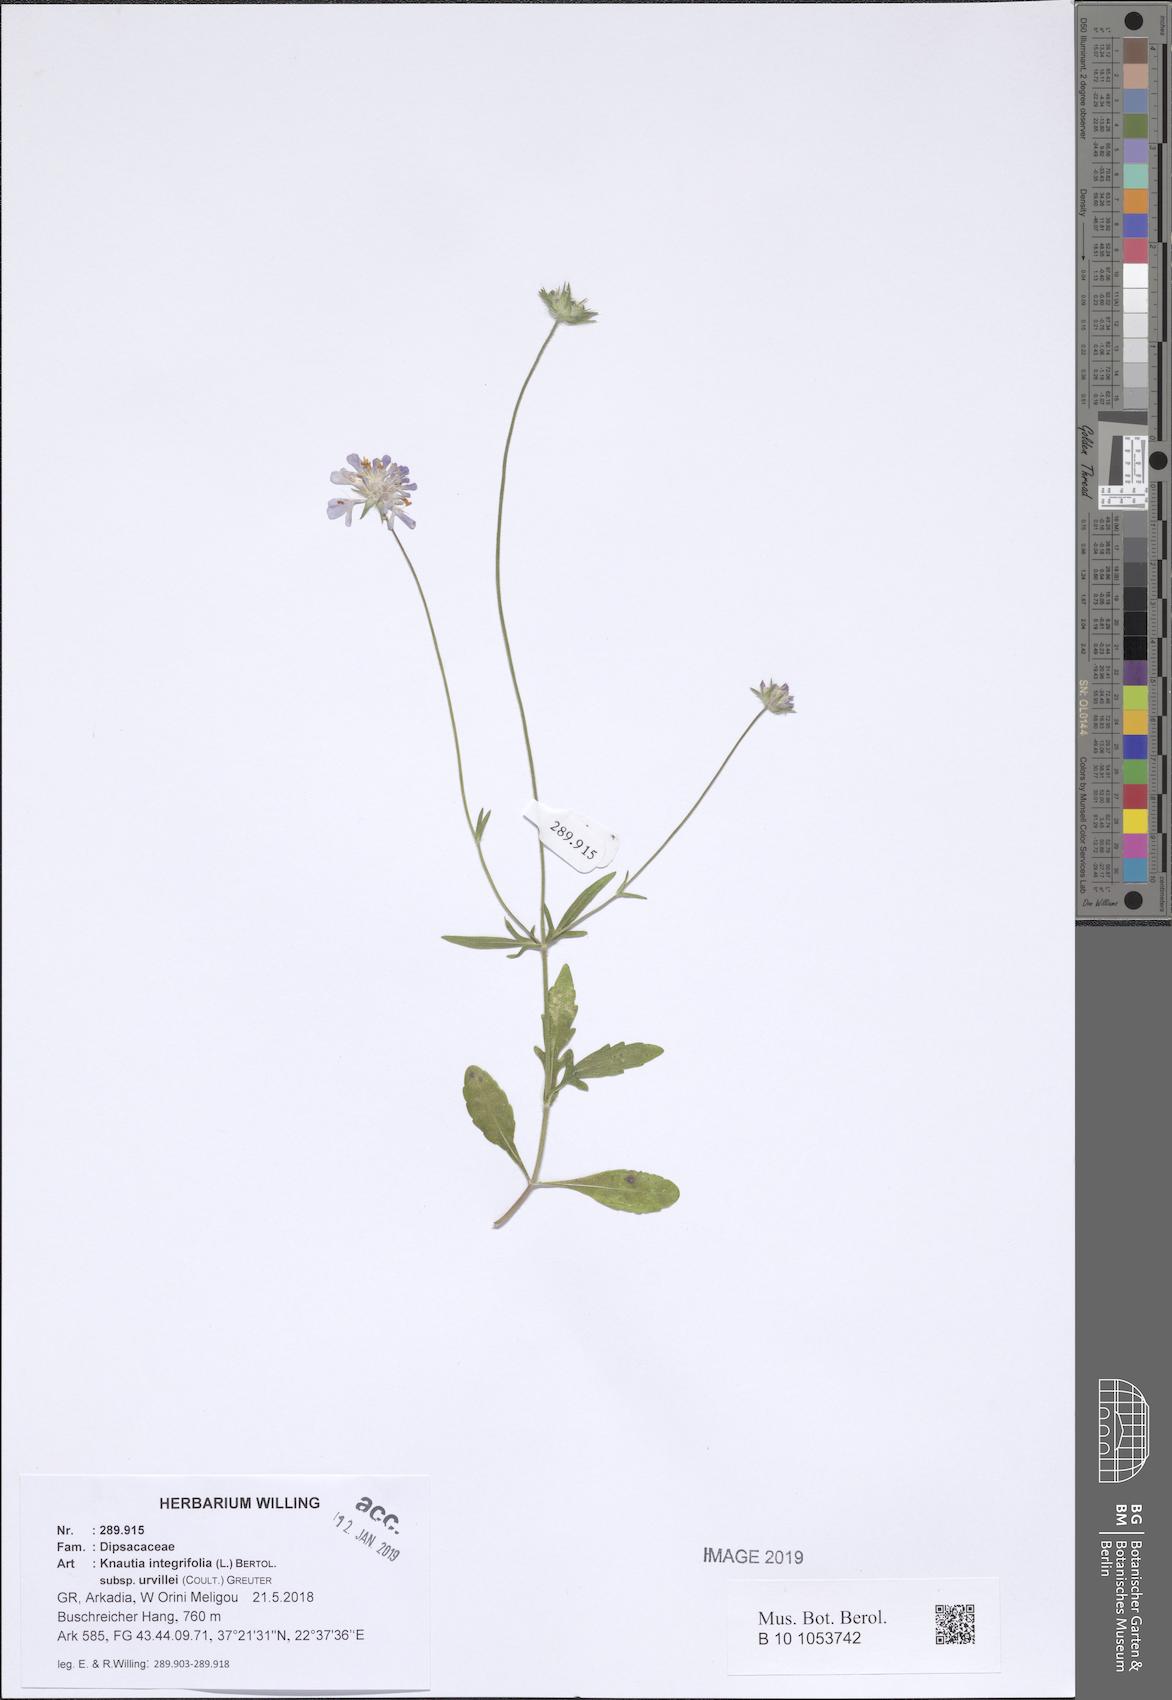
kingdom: Plantae
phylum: Tracheophyta
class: Magnoliopsida
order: Dipsacales
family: Caprifoliaceae
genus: Knautia
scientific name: Knautia integrifolia
